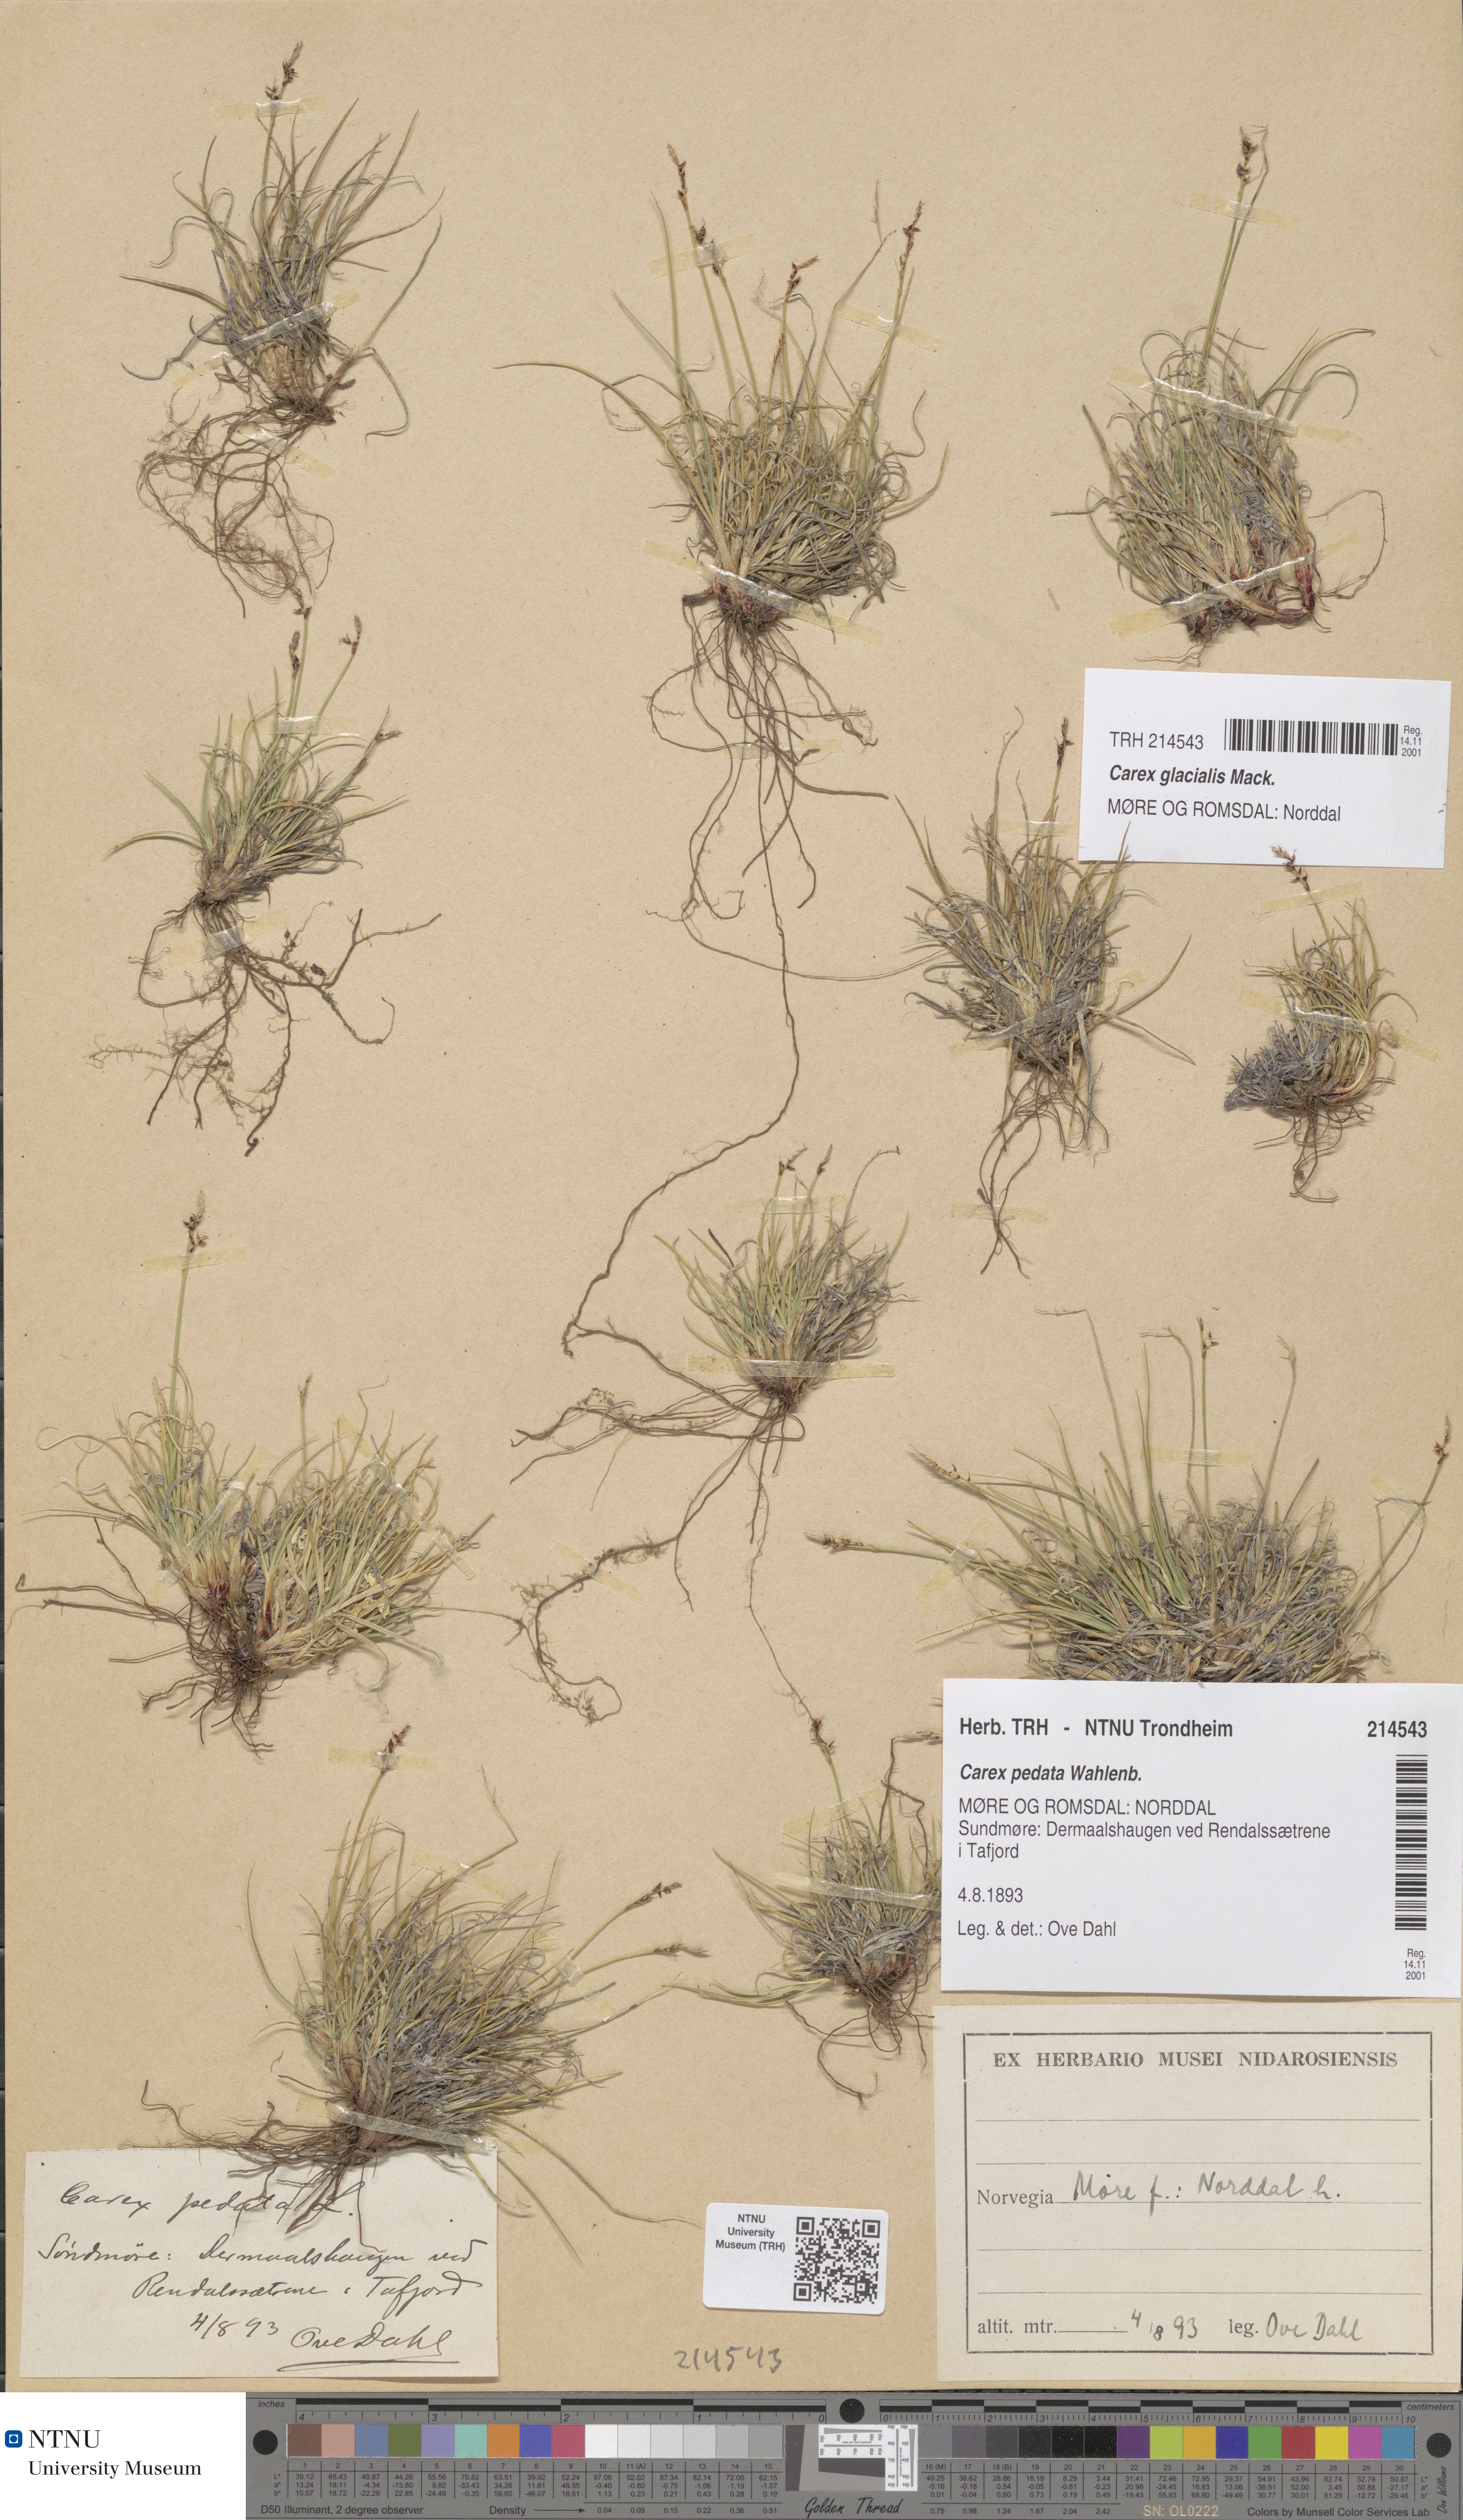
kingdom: Plantae
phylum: Tracheophyta
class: Liliopsida
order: Poales
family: Cyperaceae
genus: Carex
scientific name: Carex glacialis
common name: Newfoundland sedge
